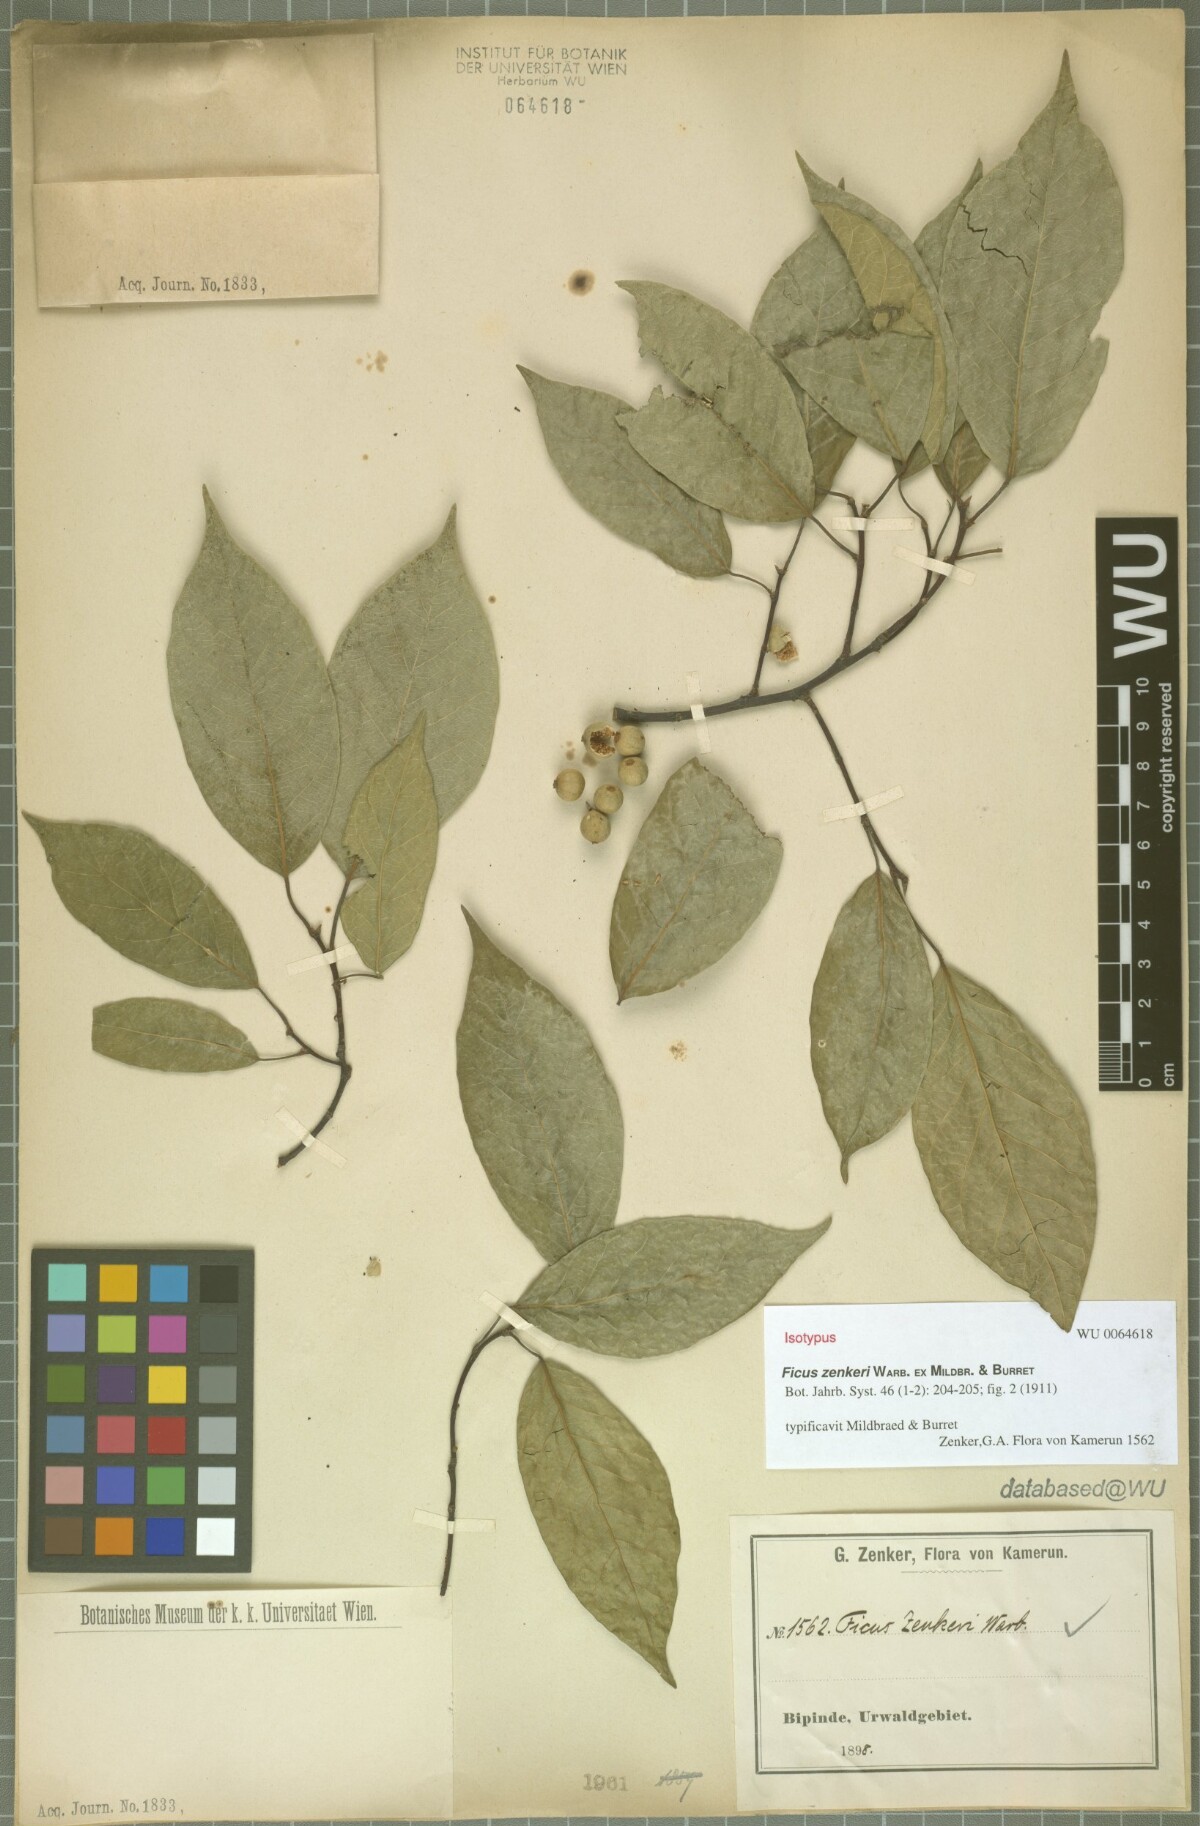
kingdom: Plantae
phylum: Tracheophyta
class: Magnoliopsida
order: Rosales
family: Moraceae
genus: Ficus
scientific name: Ficus variifolia
